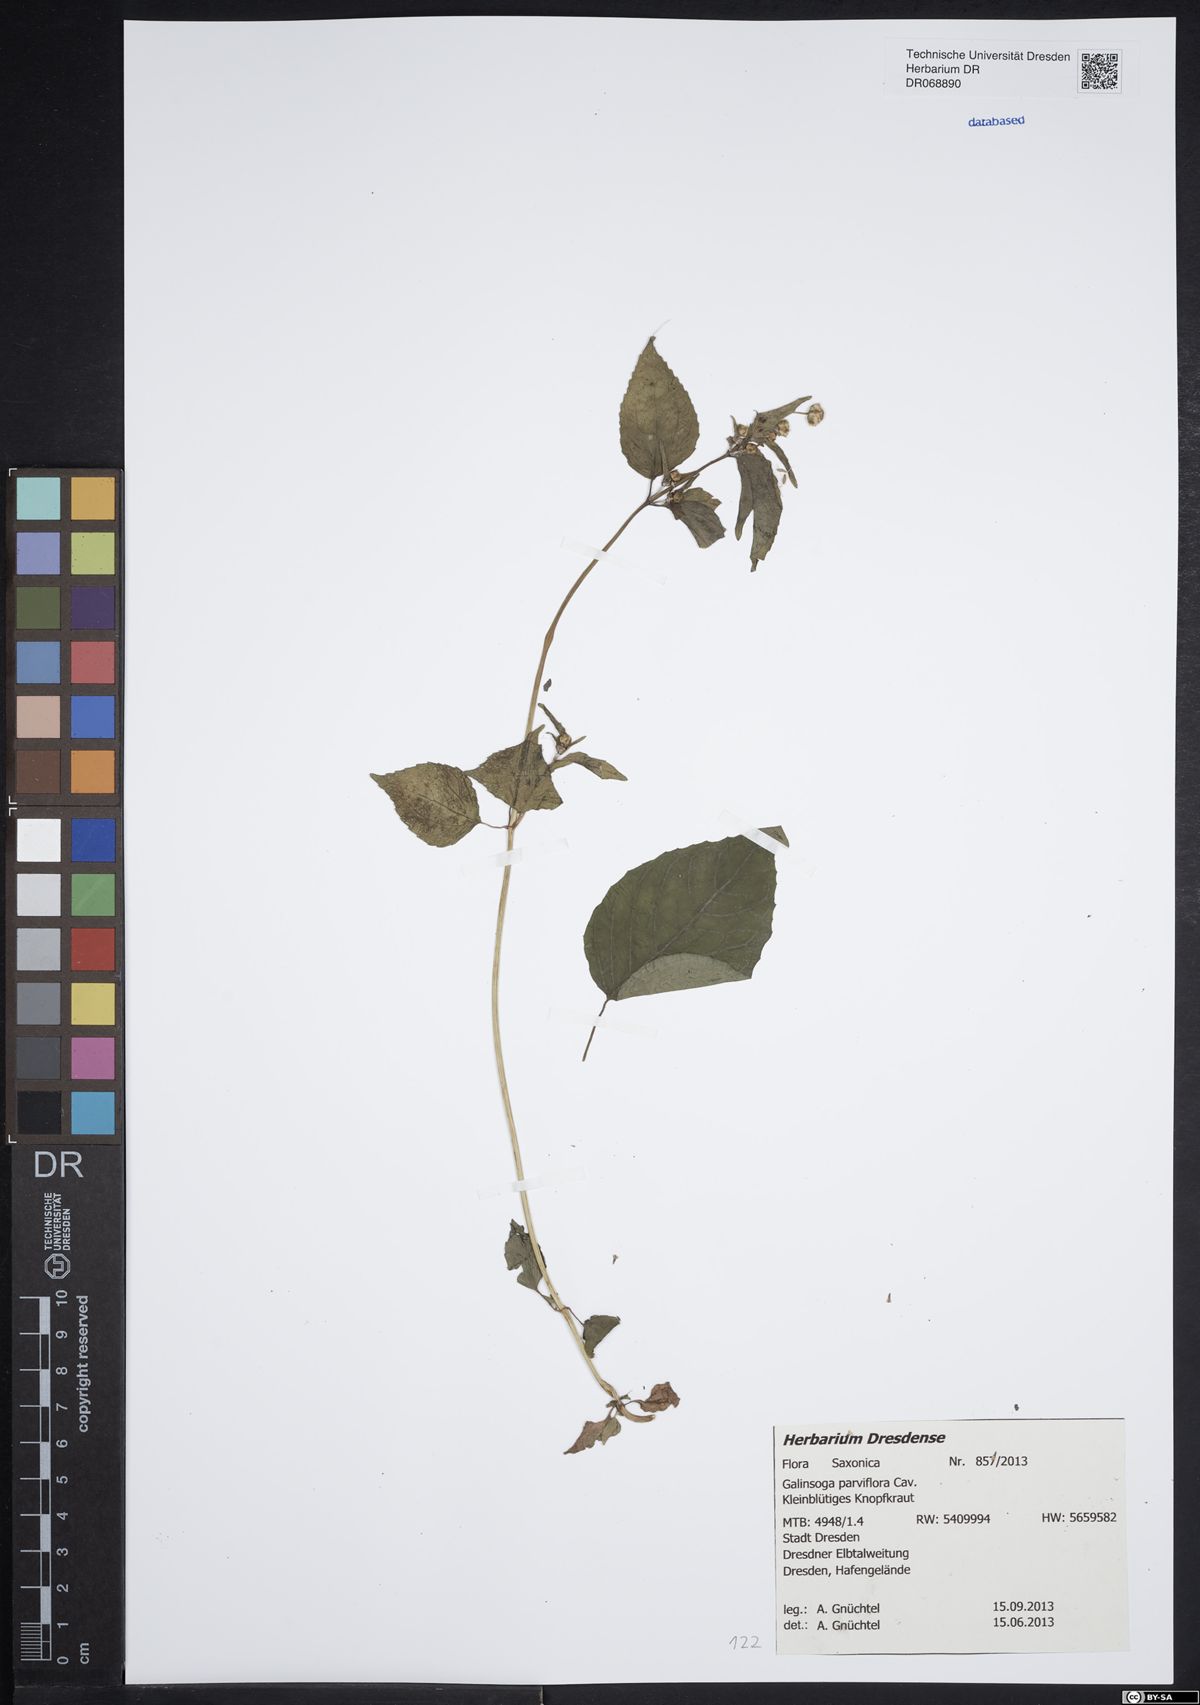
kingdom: Plantae
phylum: Tracheophyta
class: Magnoliopsida
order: Asterales
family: Asteraceae
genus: Galinsoga
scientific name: Galinsoga parviflora
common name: Gallant soldier
